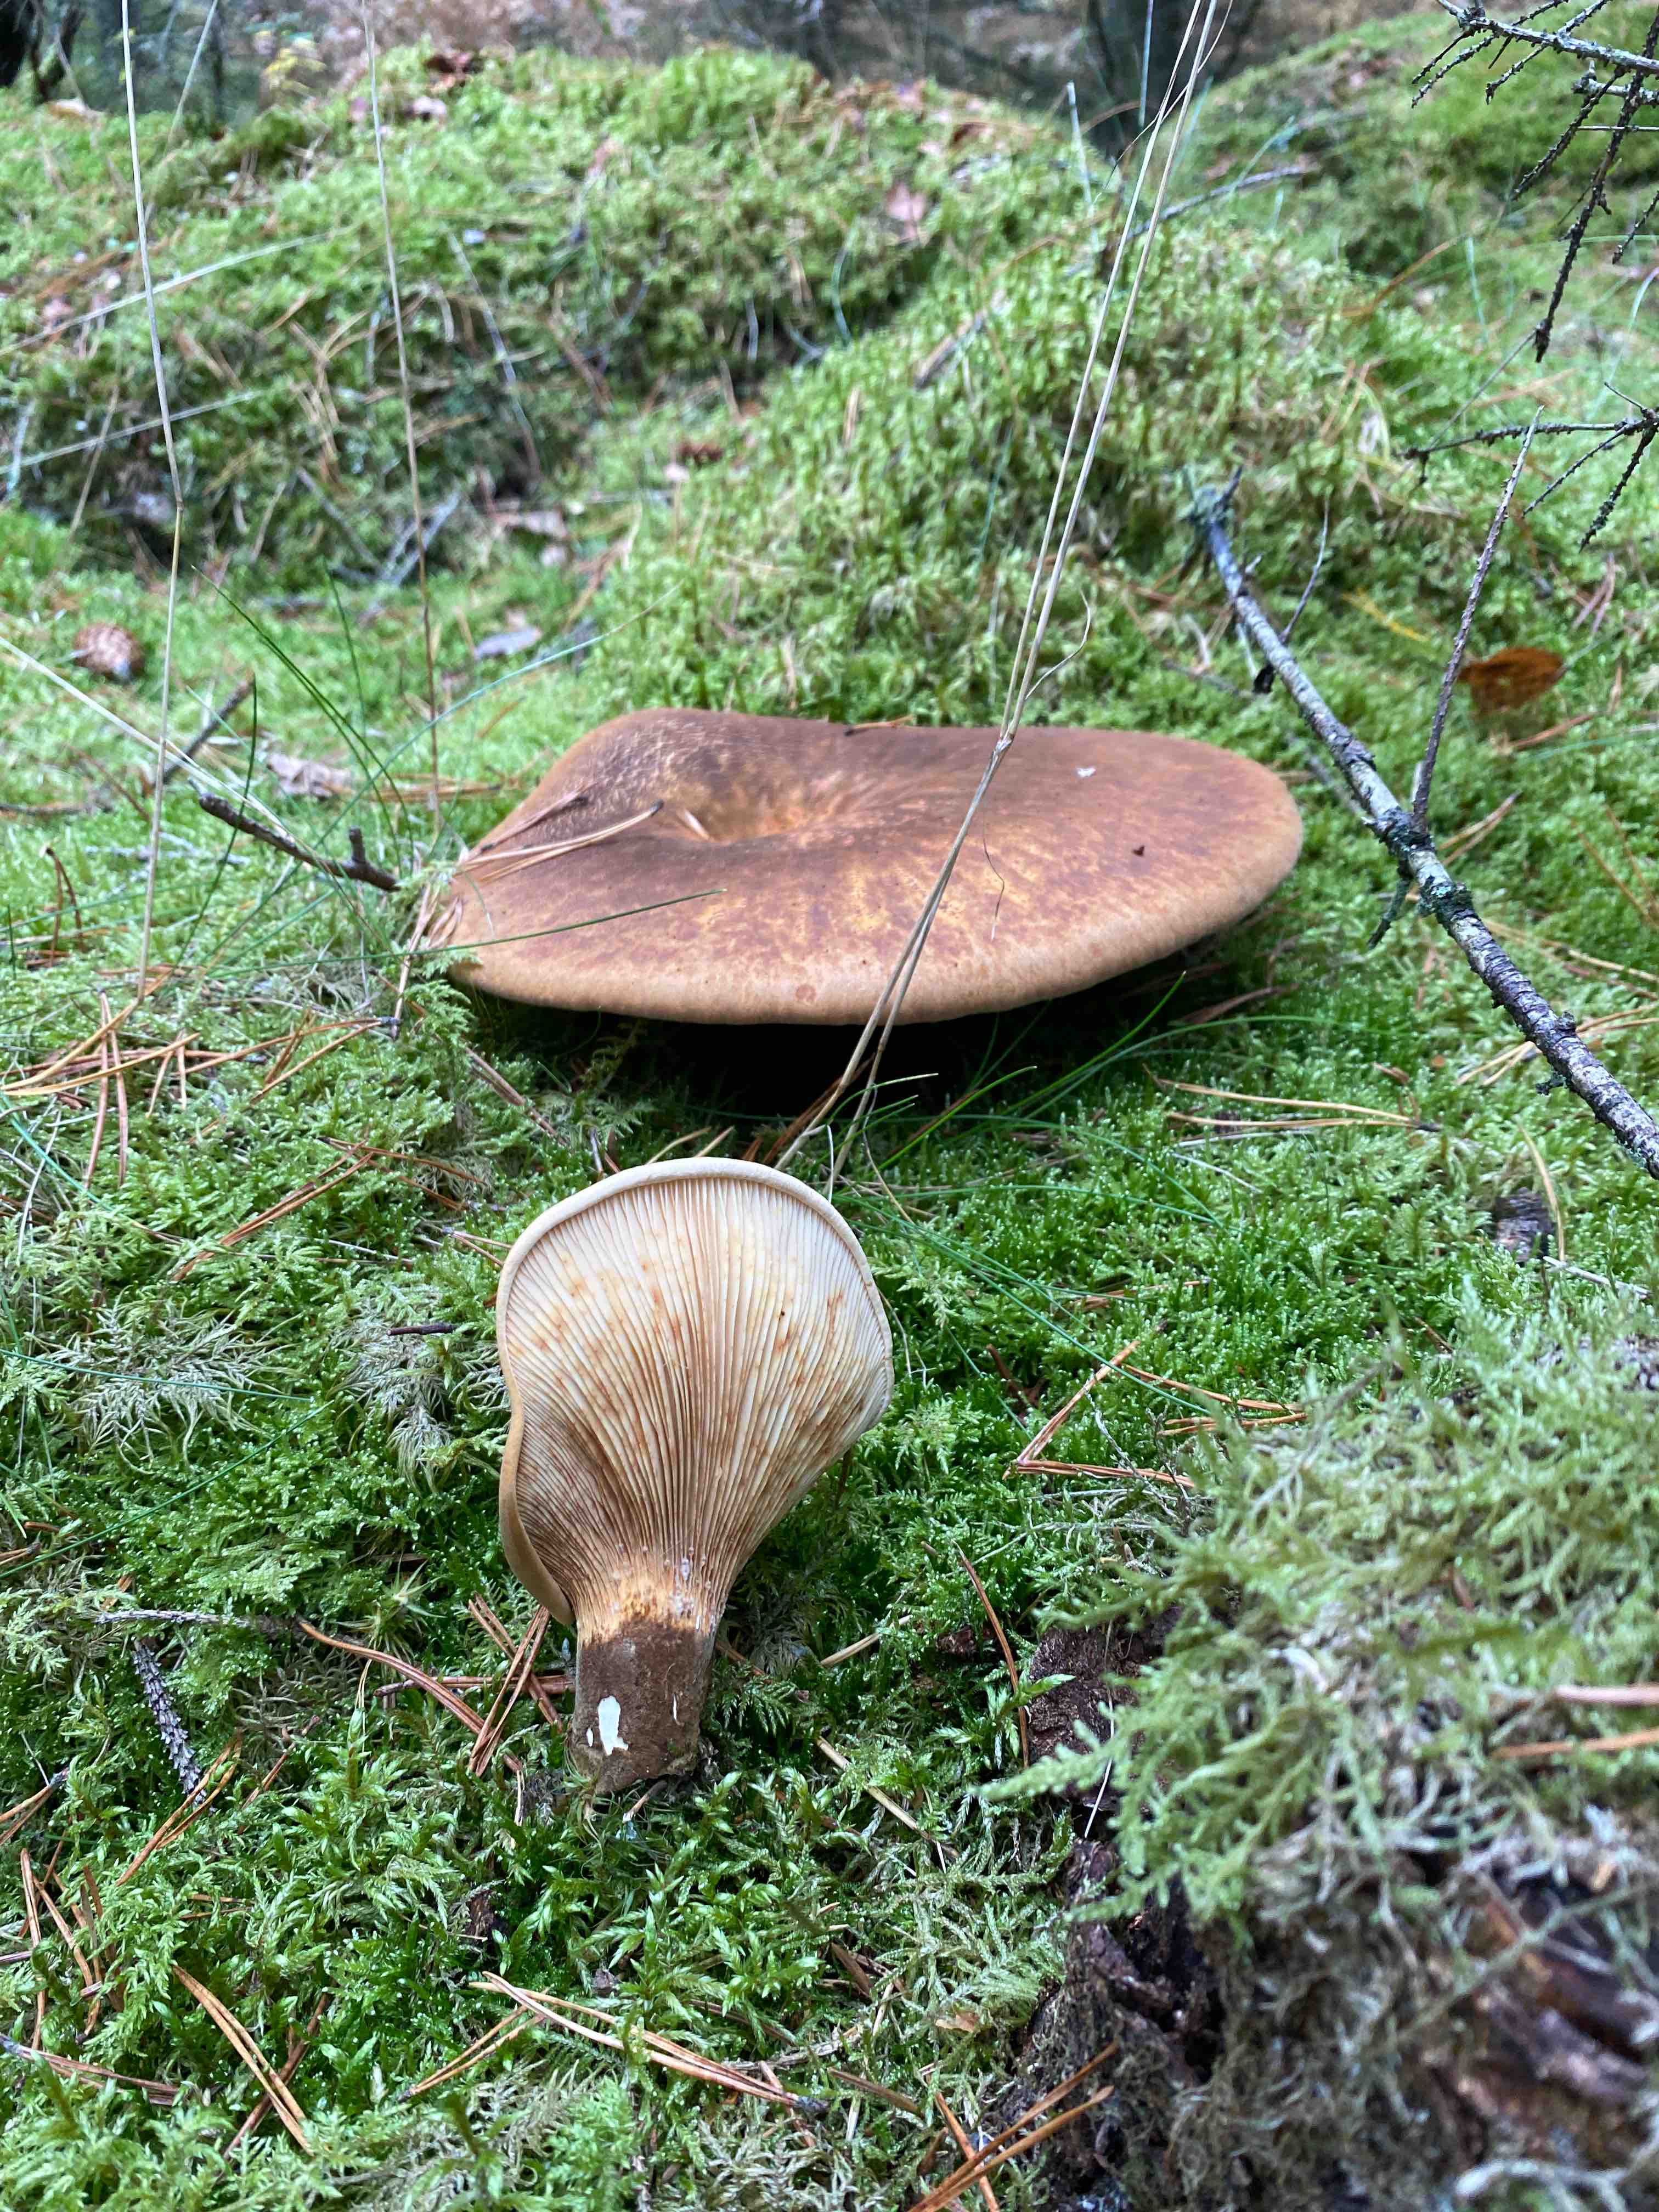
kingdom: Fungi
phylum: Basidiomycota
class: Agaricomycetes
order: Boletales
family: Tapinellaceae
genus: Tapinella
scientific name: Tapinella atrotomentosa
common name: sortfiltet viftesvamp
